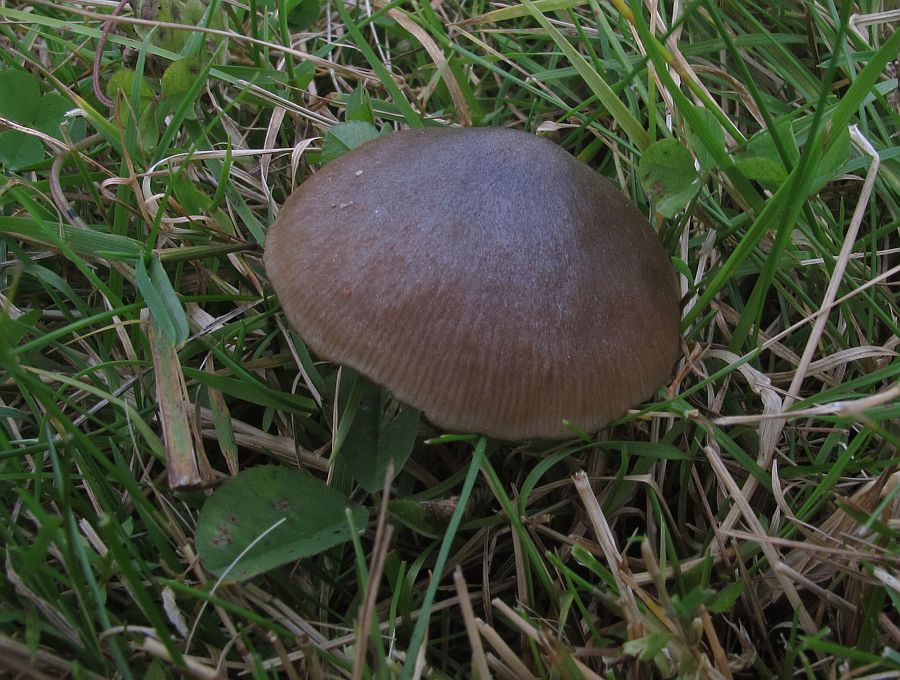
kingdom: Fungi
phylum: Basidiomycota
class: Agaricomycetes
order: Agaricales
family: Entolomataceae
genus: Entoloma
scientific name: Entoloma conferendum
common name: stjernesporet rødblad
